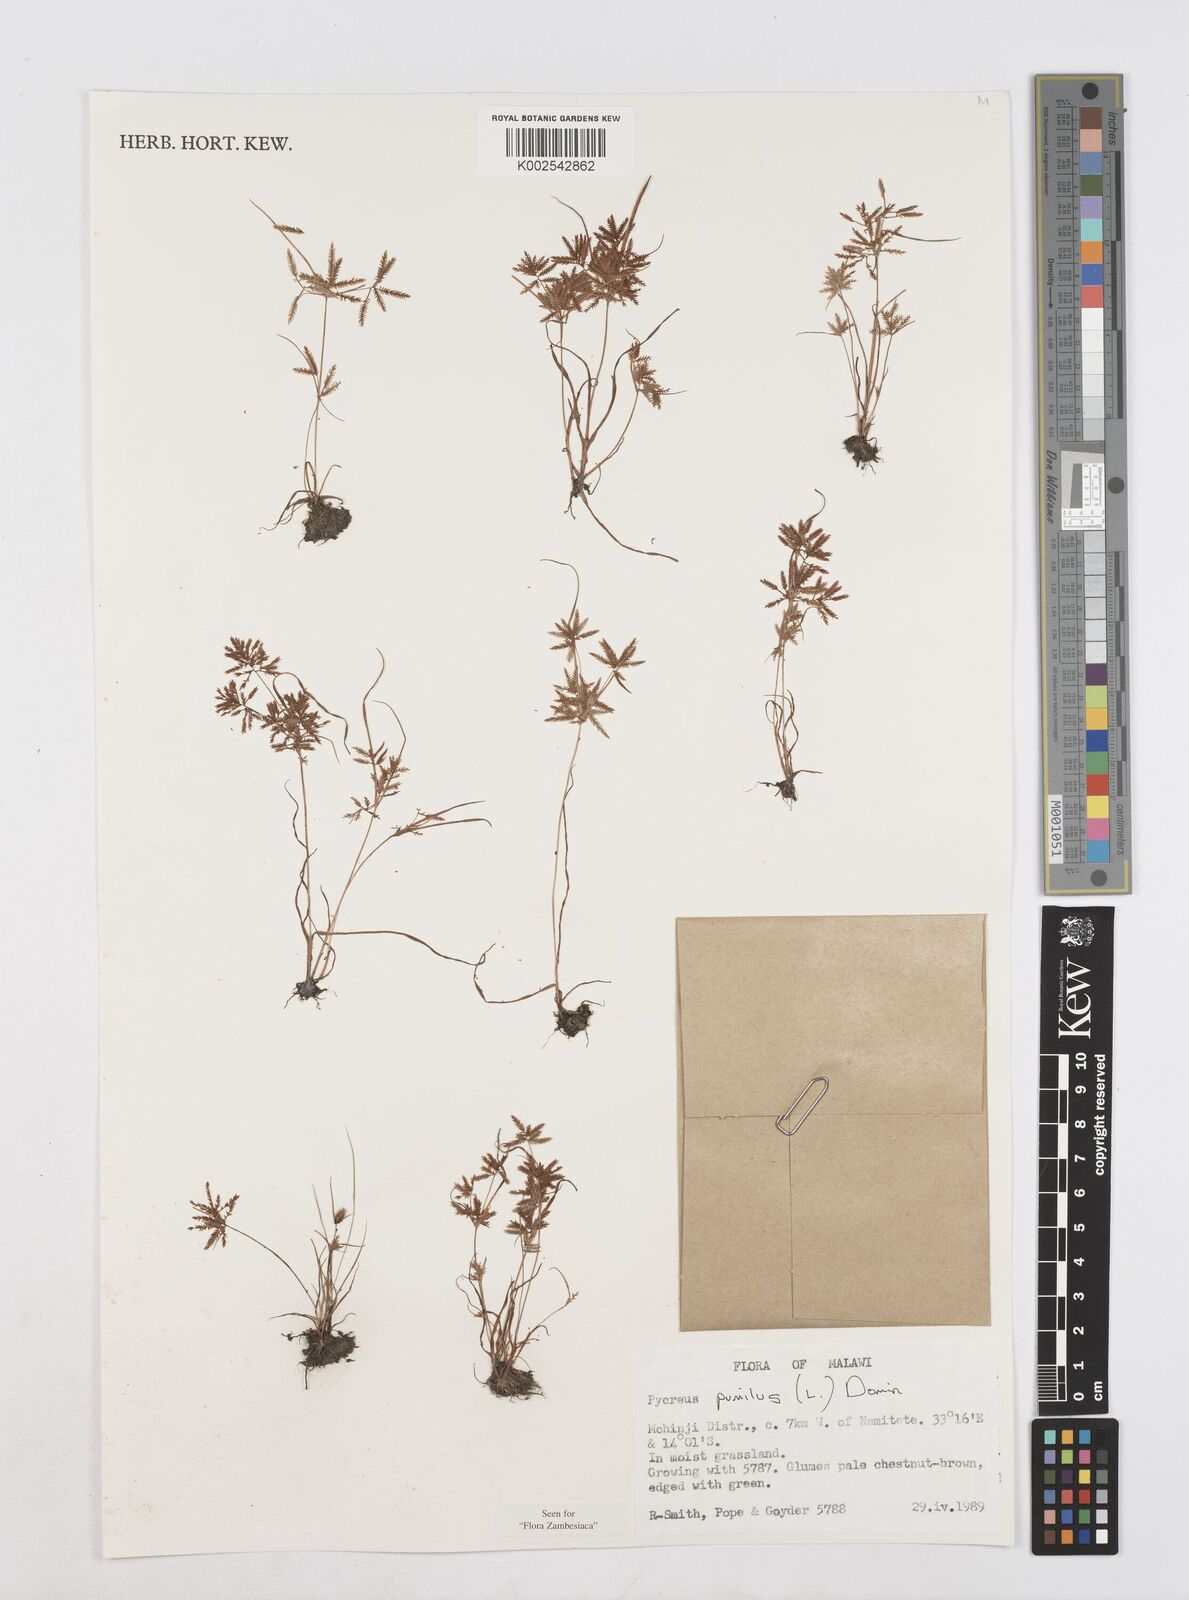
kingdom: Plantae
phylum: Tracheophyta
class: Liliopsida
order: Poales
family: Cyperaceae
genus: Cyperus
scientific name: Cyperus pumilus
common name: Low flatsedge
